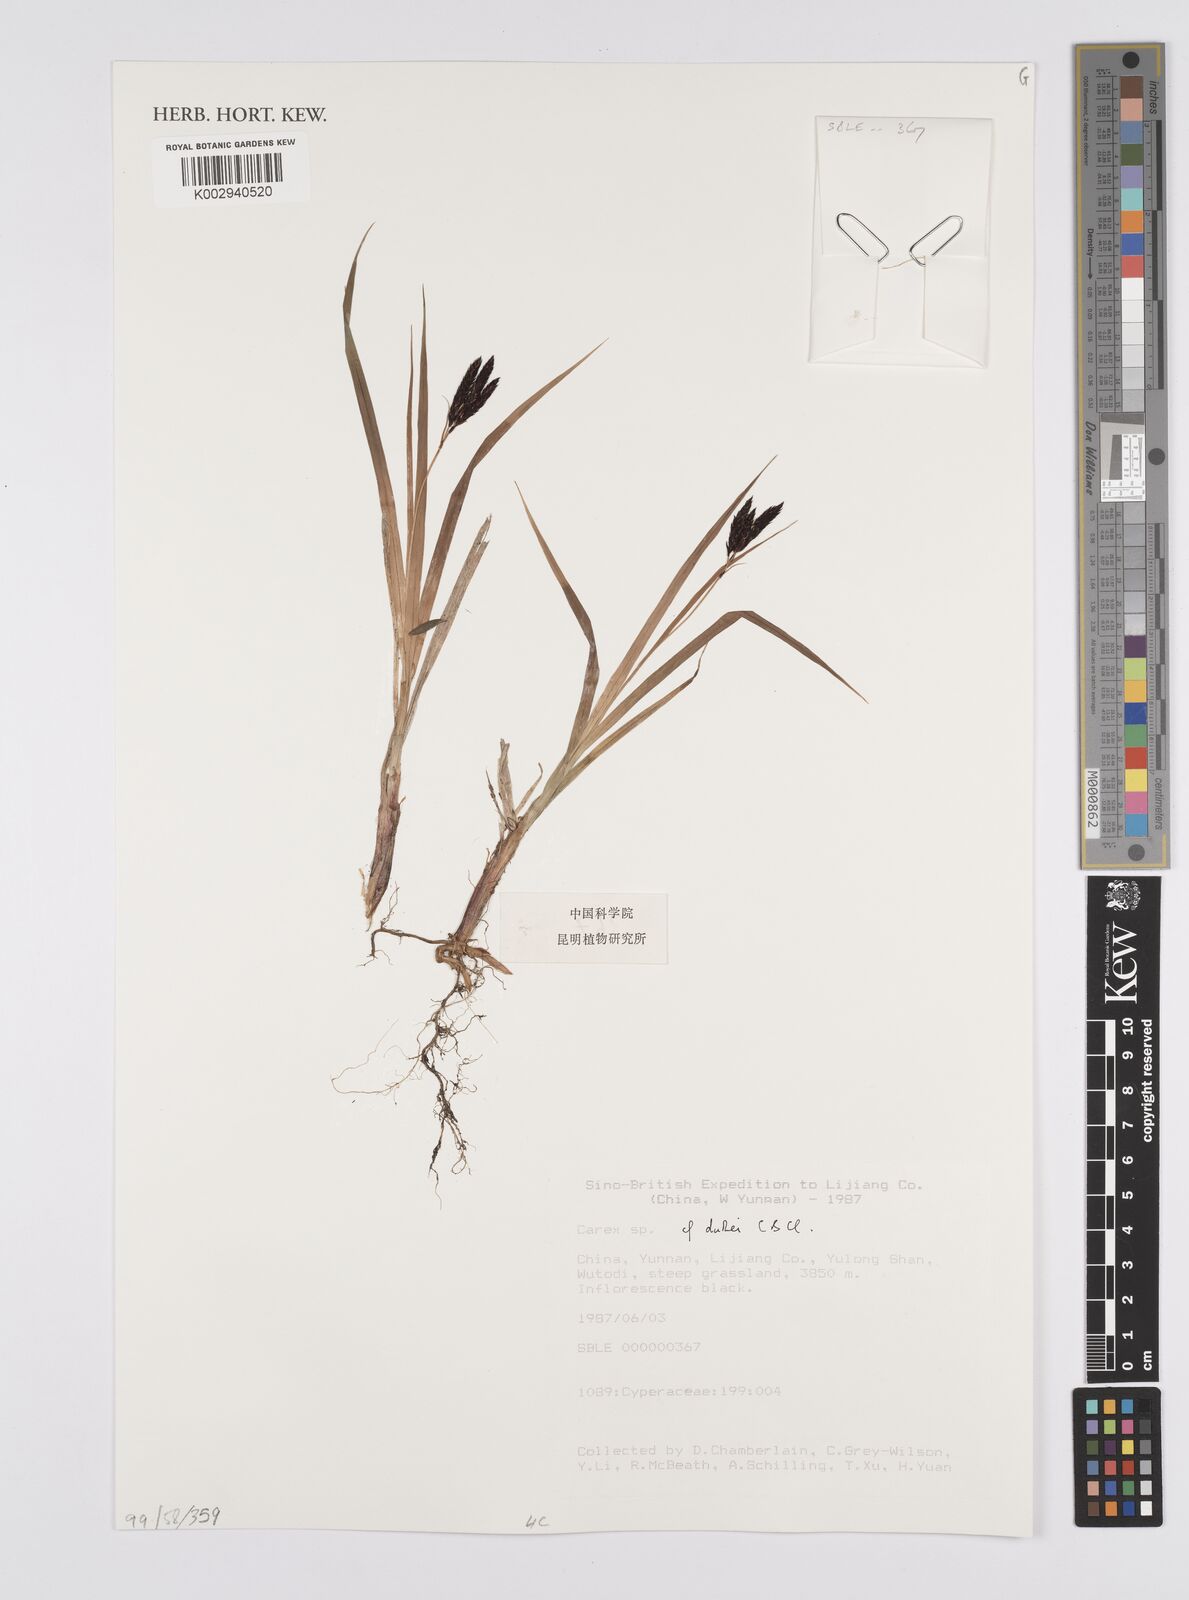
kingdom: Plantae
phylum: Tracheophyta
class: Liliopsida
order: Poales
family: Cyperaceae
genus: Carex
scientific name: Carex atrata
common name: Black alpine sedge
